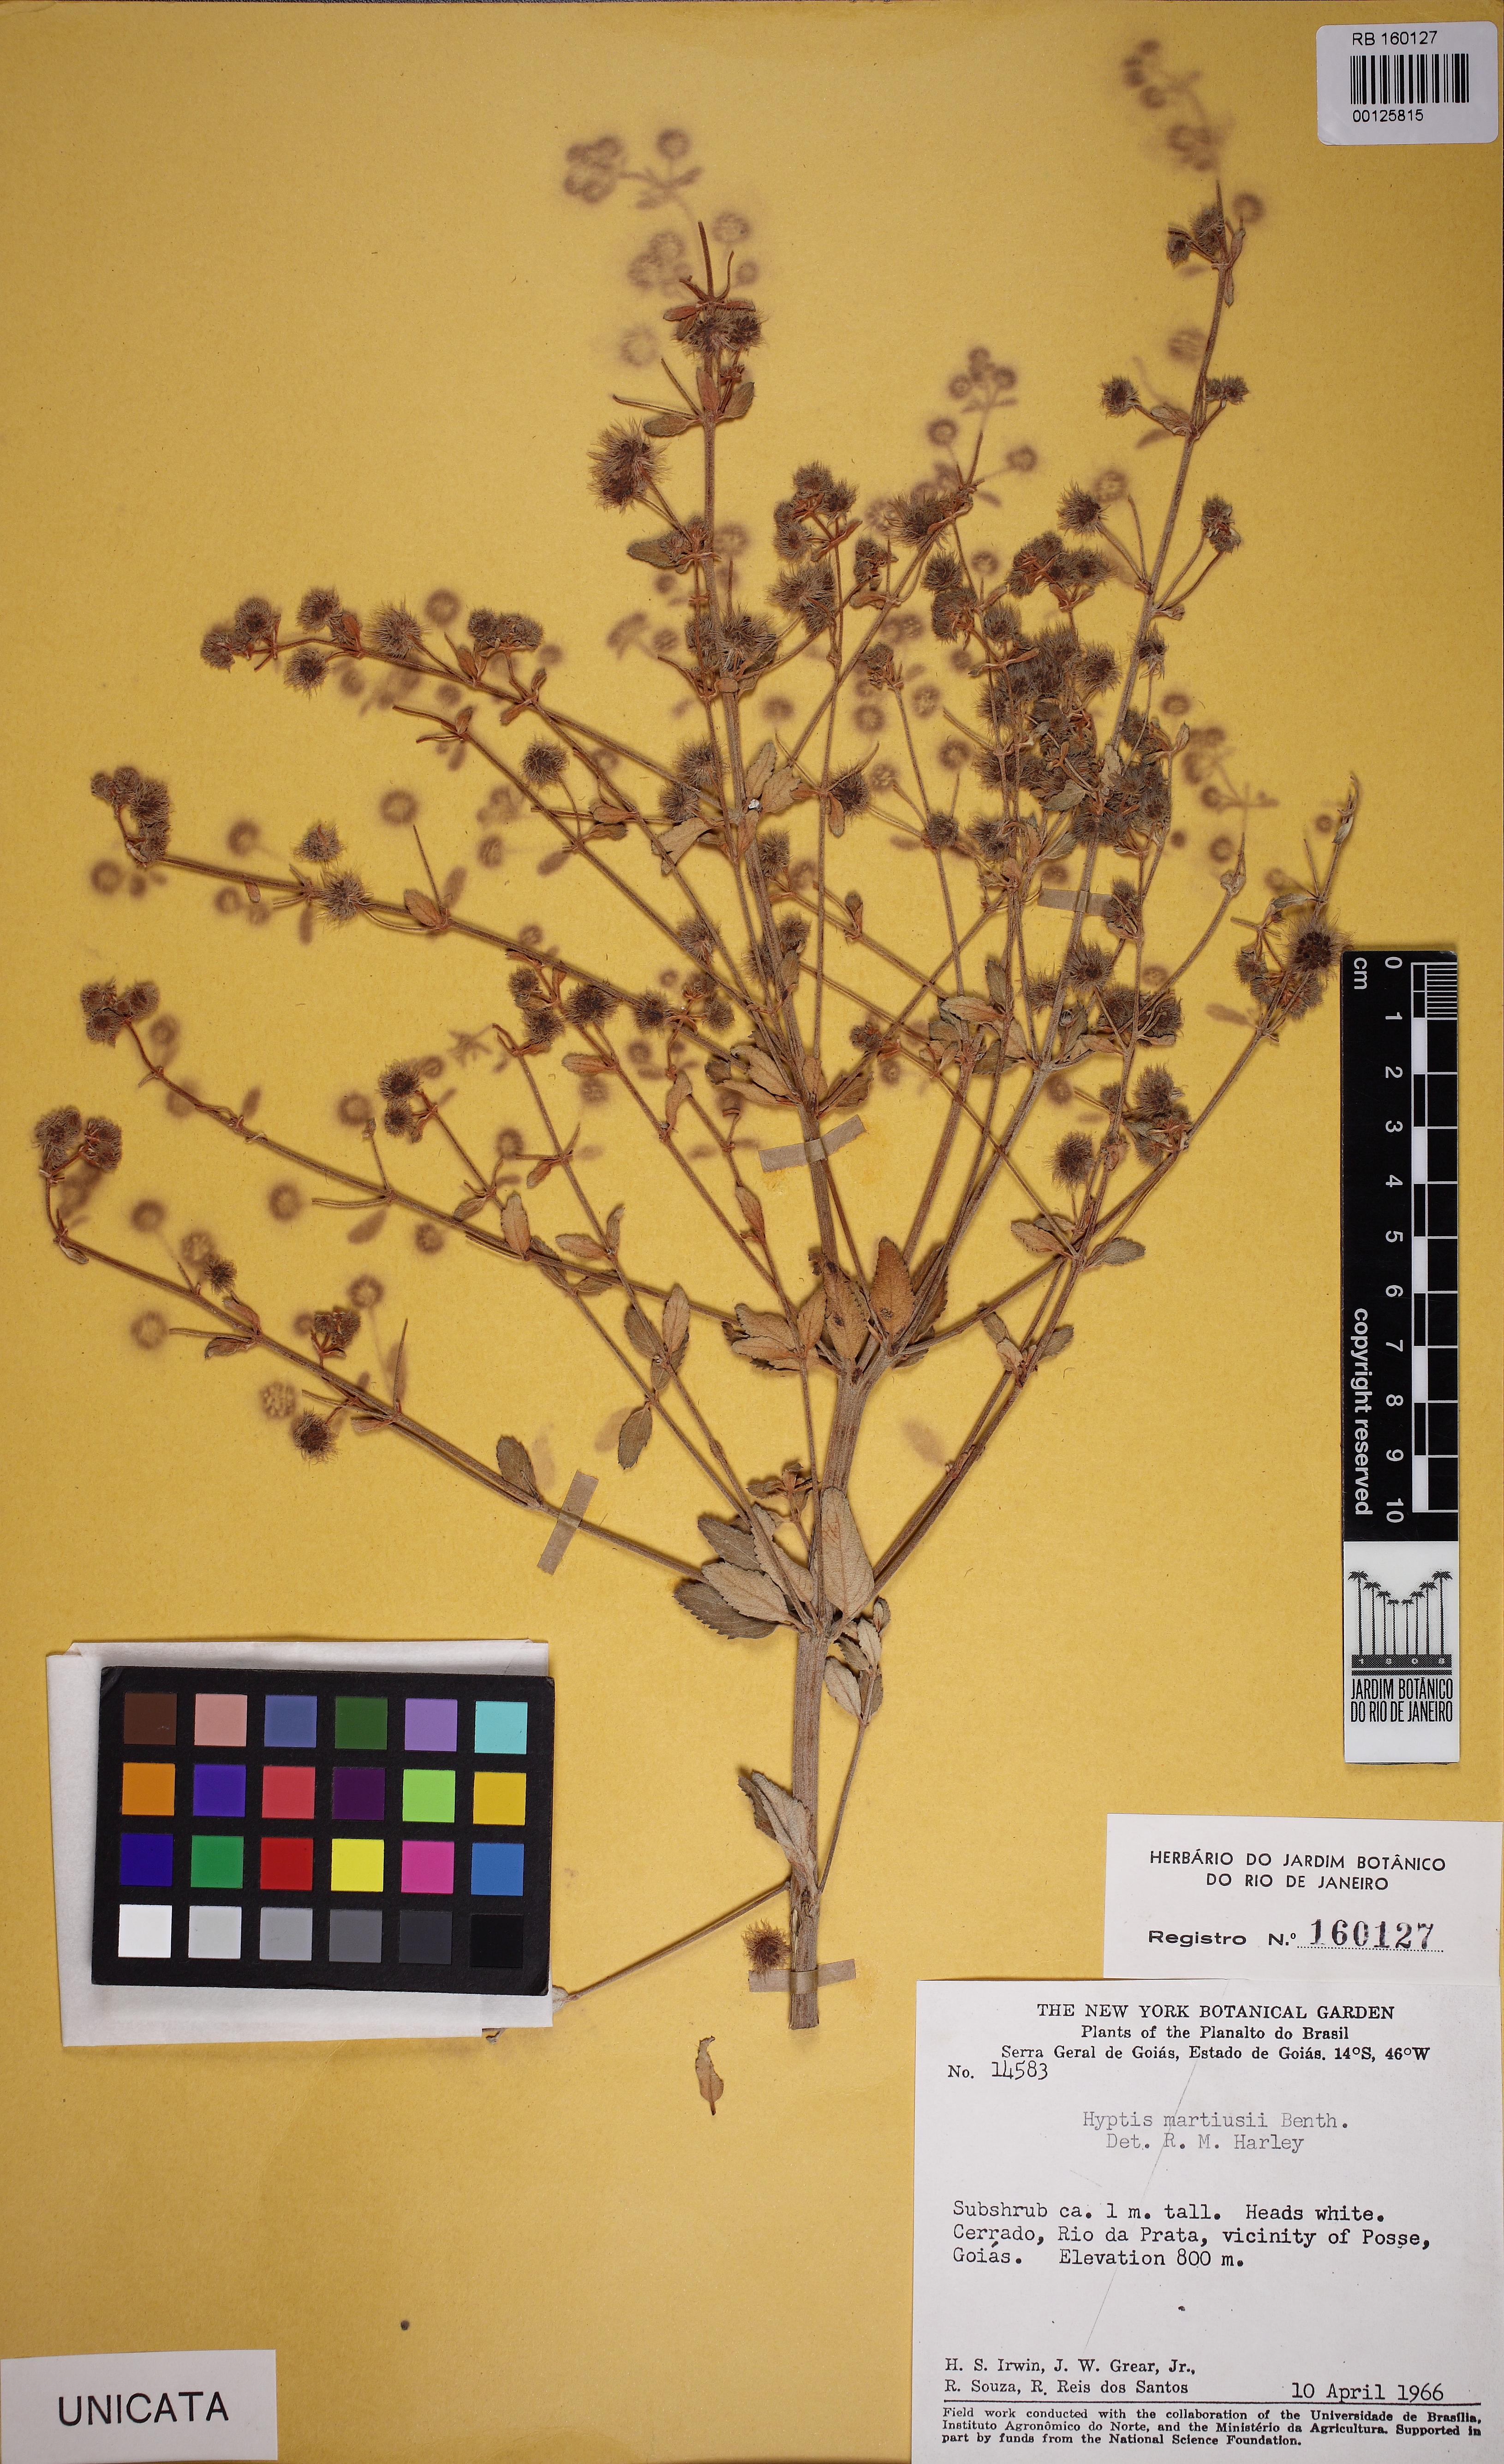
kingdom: Plantae
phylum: Tracheophyta
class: Magnoliopsida
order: Lamiales
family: Lamiaceae
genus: Medusantha
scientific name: Medusantha martiusii
